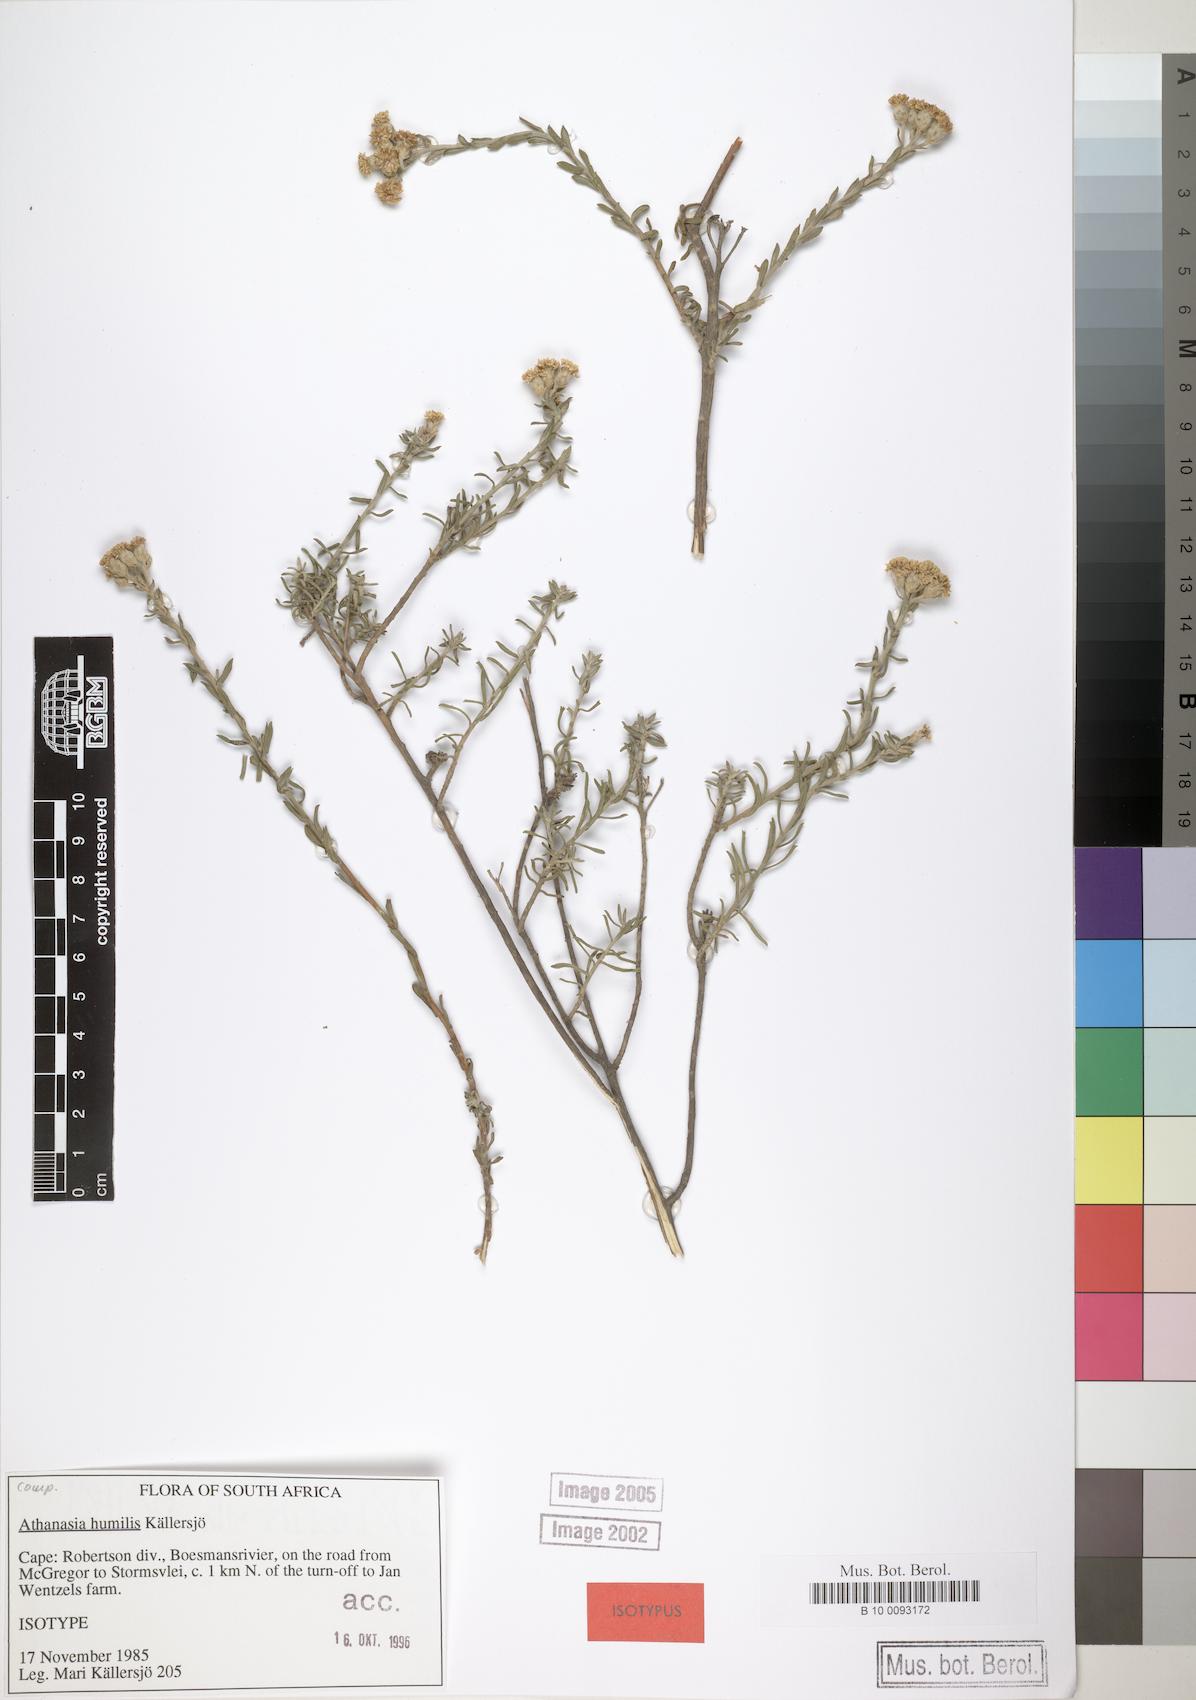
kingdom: Plantae
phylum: Tracheophyta
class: Magnoliopsida
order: Asterales
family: Asteraceae
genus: Athanasia
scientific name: Athanasia humilis
